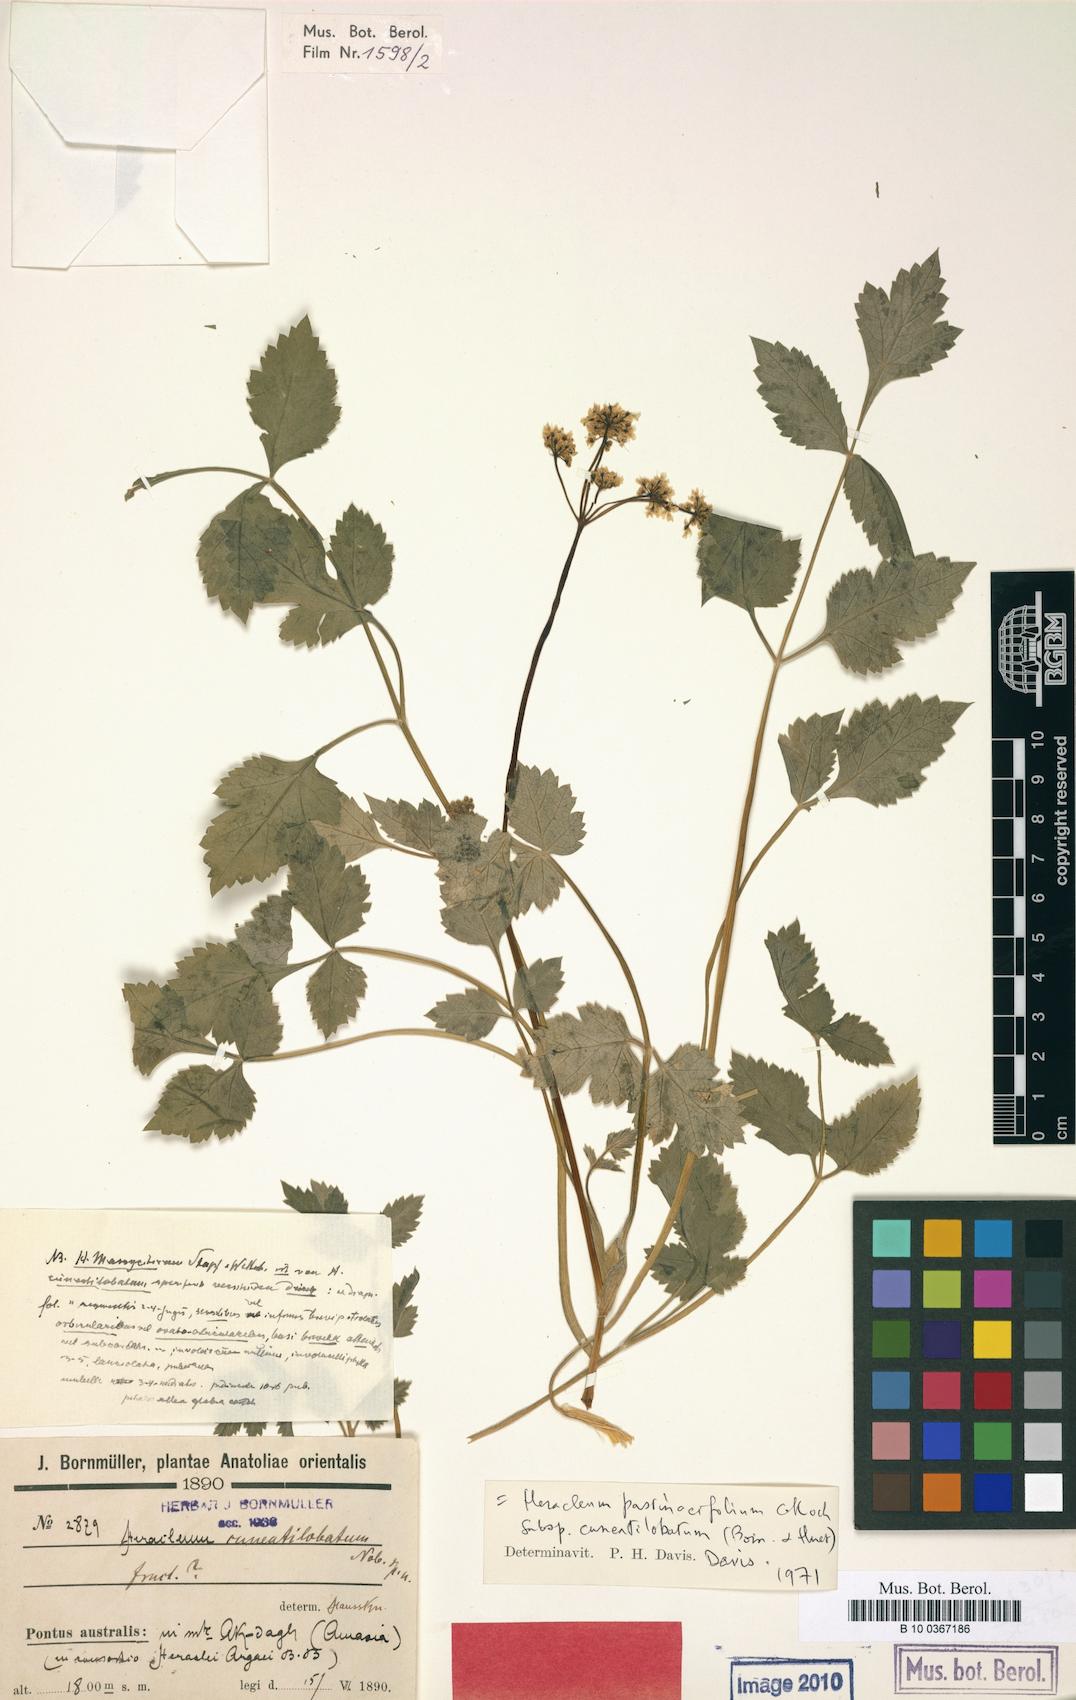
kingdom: Plantae
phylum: Tracheophyta
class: Magnoliopsida
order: Apiales
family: Apiaceae
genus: Heracleum
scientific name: Heracleum incanum
